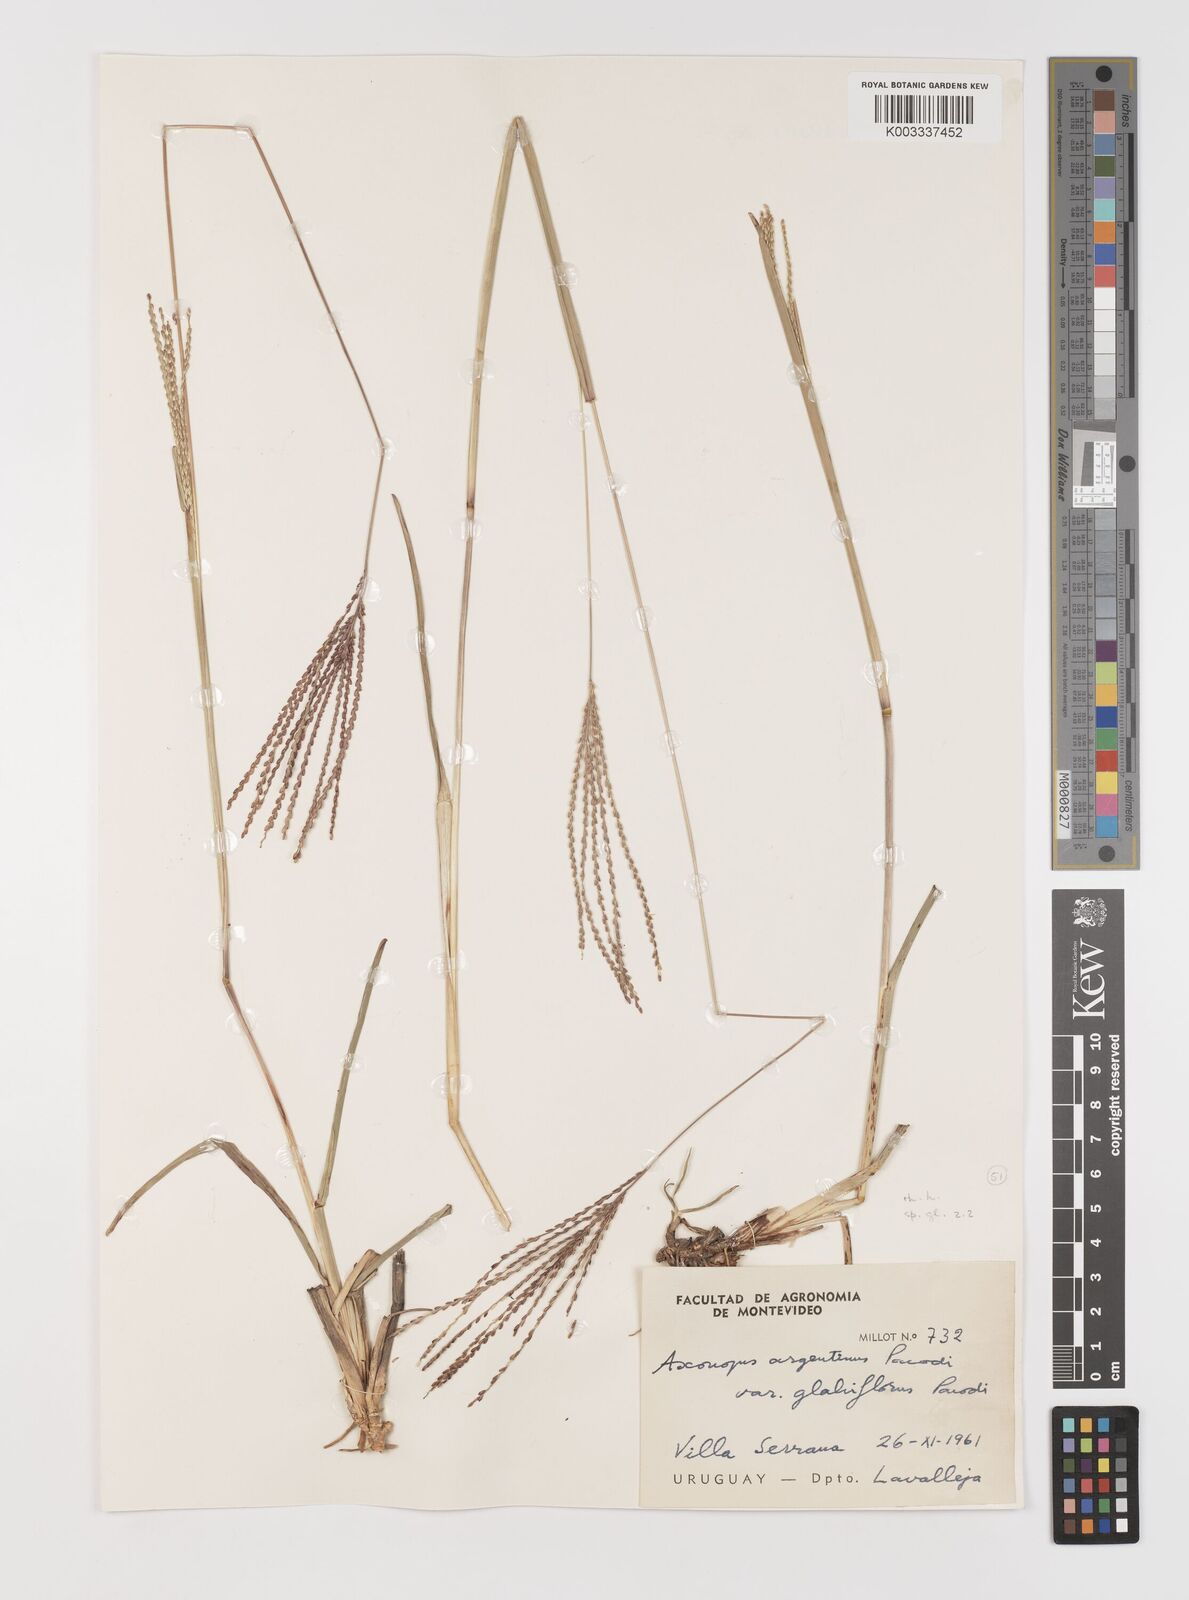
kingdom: Plantae
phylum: Tracheophyta
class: Liliopsida
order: Poales
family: Poaceae
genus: Axonopus
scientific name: Axonopus argentinus
